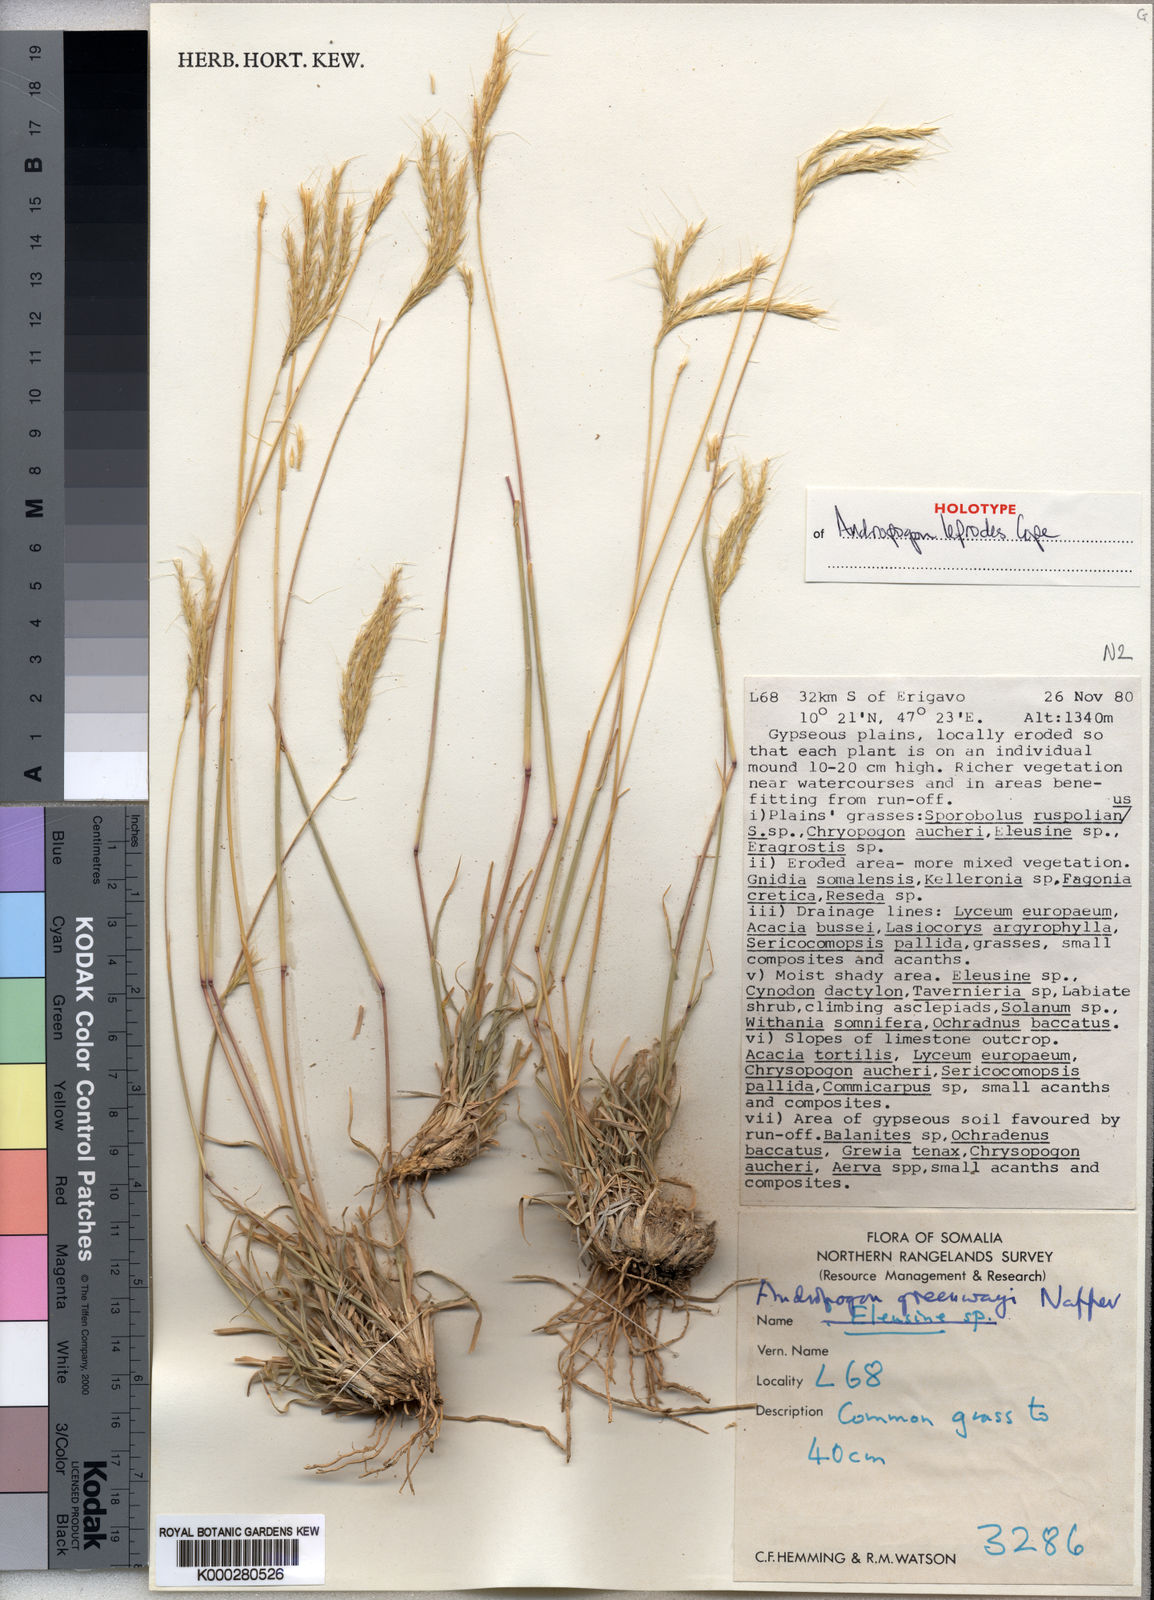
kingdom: Plantae
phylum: Tracheophyta
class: Liliopsida
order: Poales
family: Poaceae
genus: Andropogon
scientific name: Andropogon leprodes
